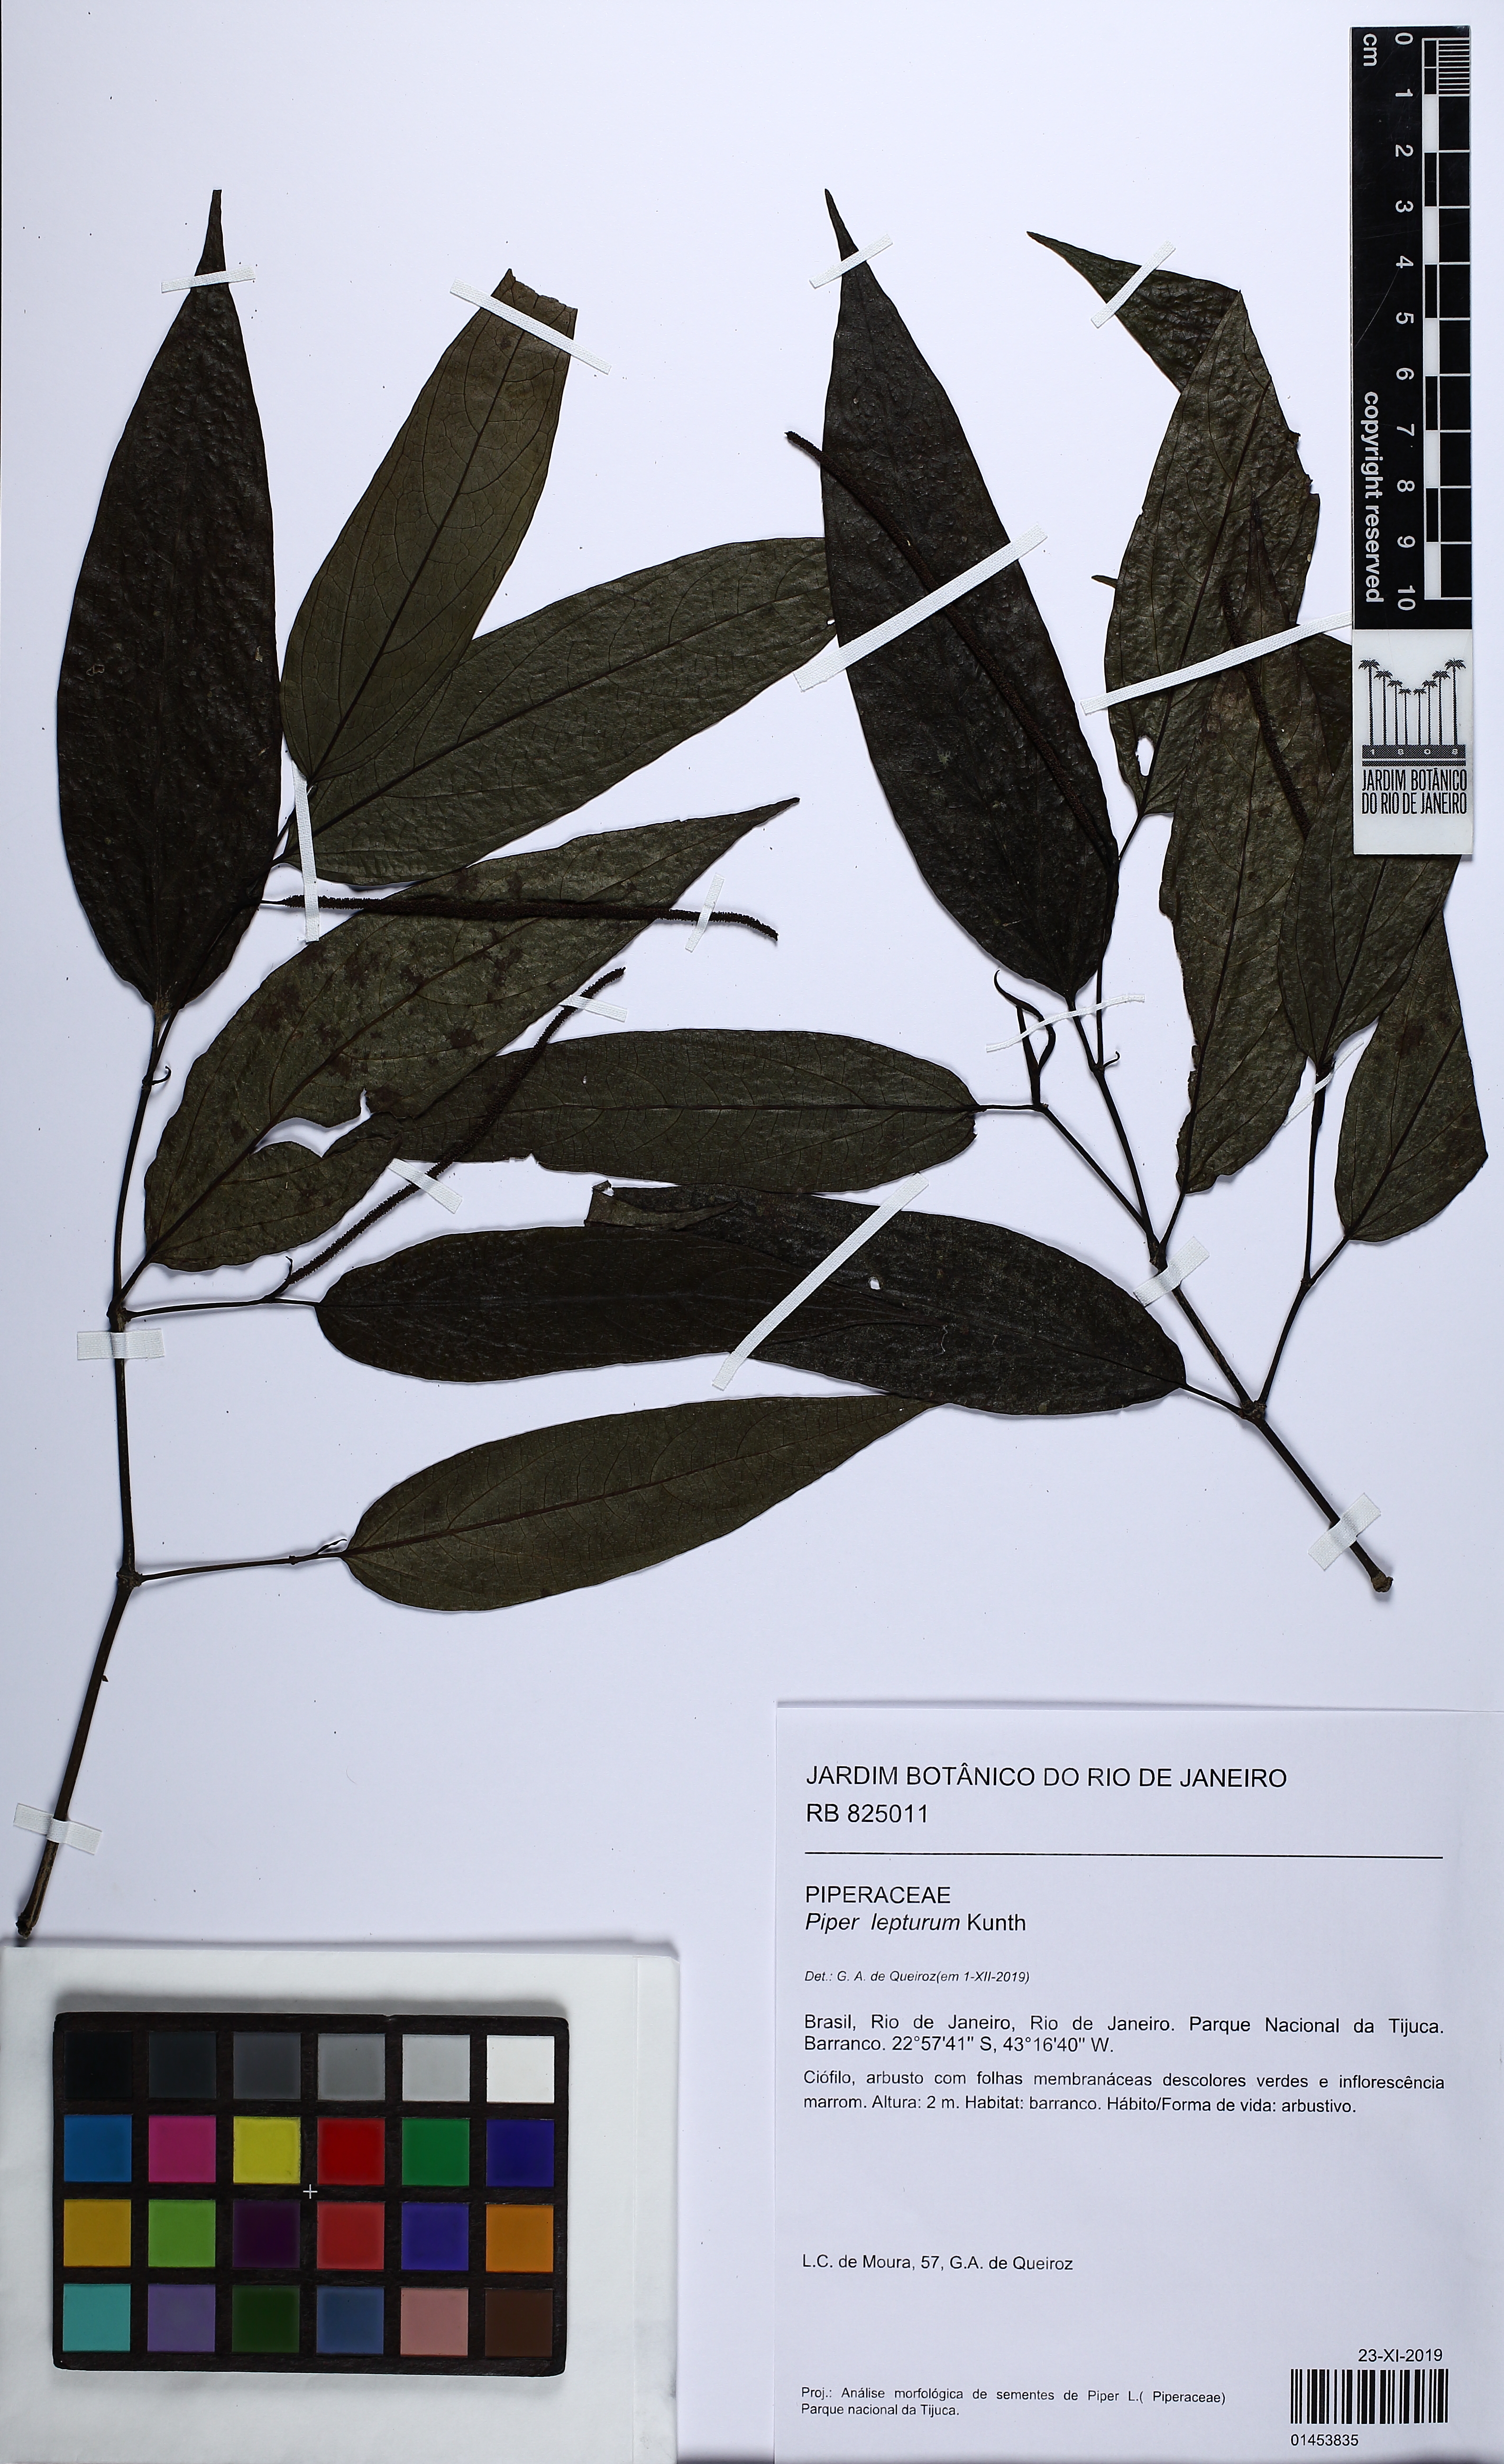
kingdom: Plantae
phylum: Tracheophyta
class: Magnoliopsida
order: Piperales
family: Piperaceae
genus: Piper
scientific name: Piper lepturum
